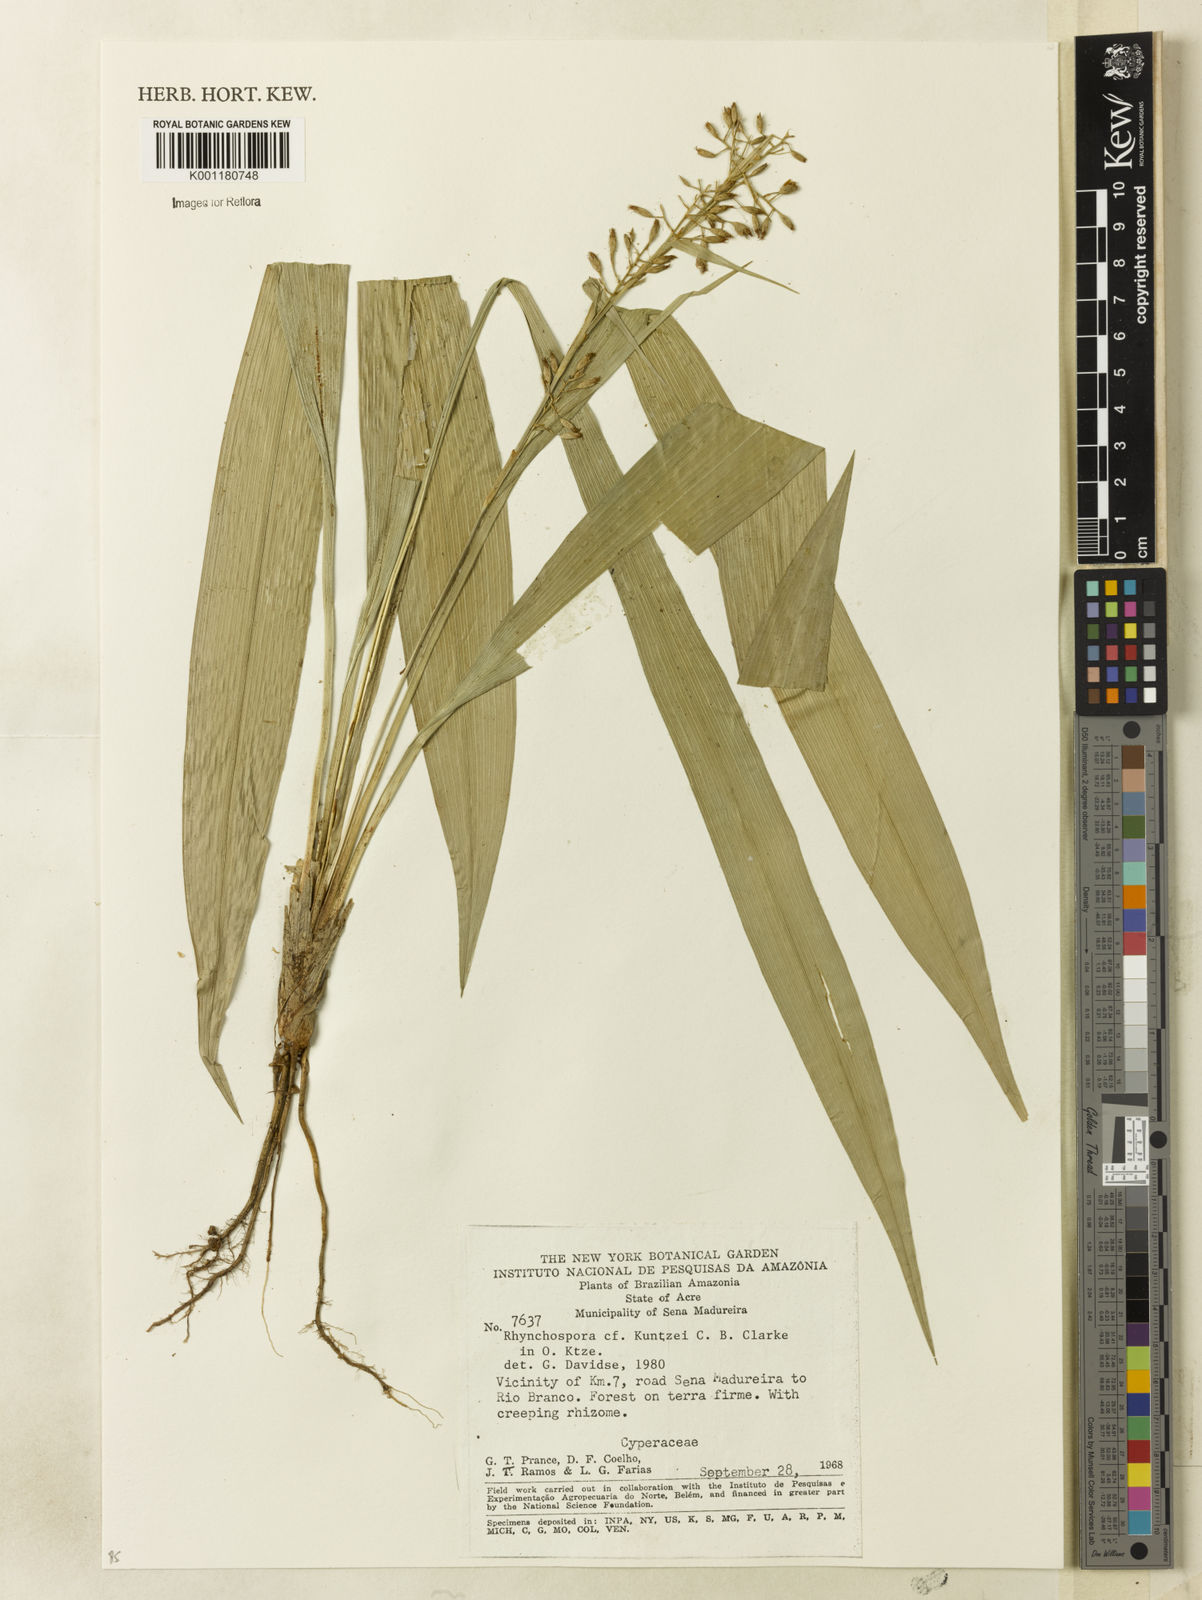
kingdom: Plantae
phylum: Tracheophyta
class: Liliopsida
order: Poales
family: Cyperaceae
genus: Rhynchospora
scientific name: Rhynchospora
